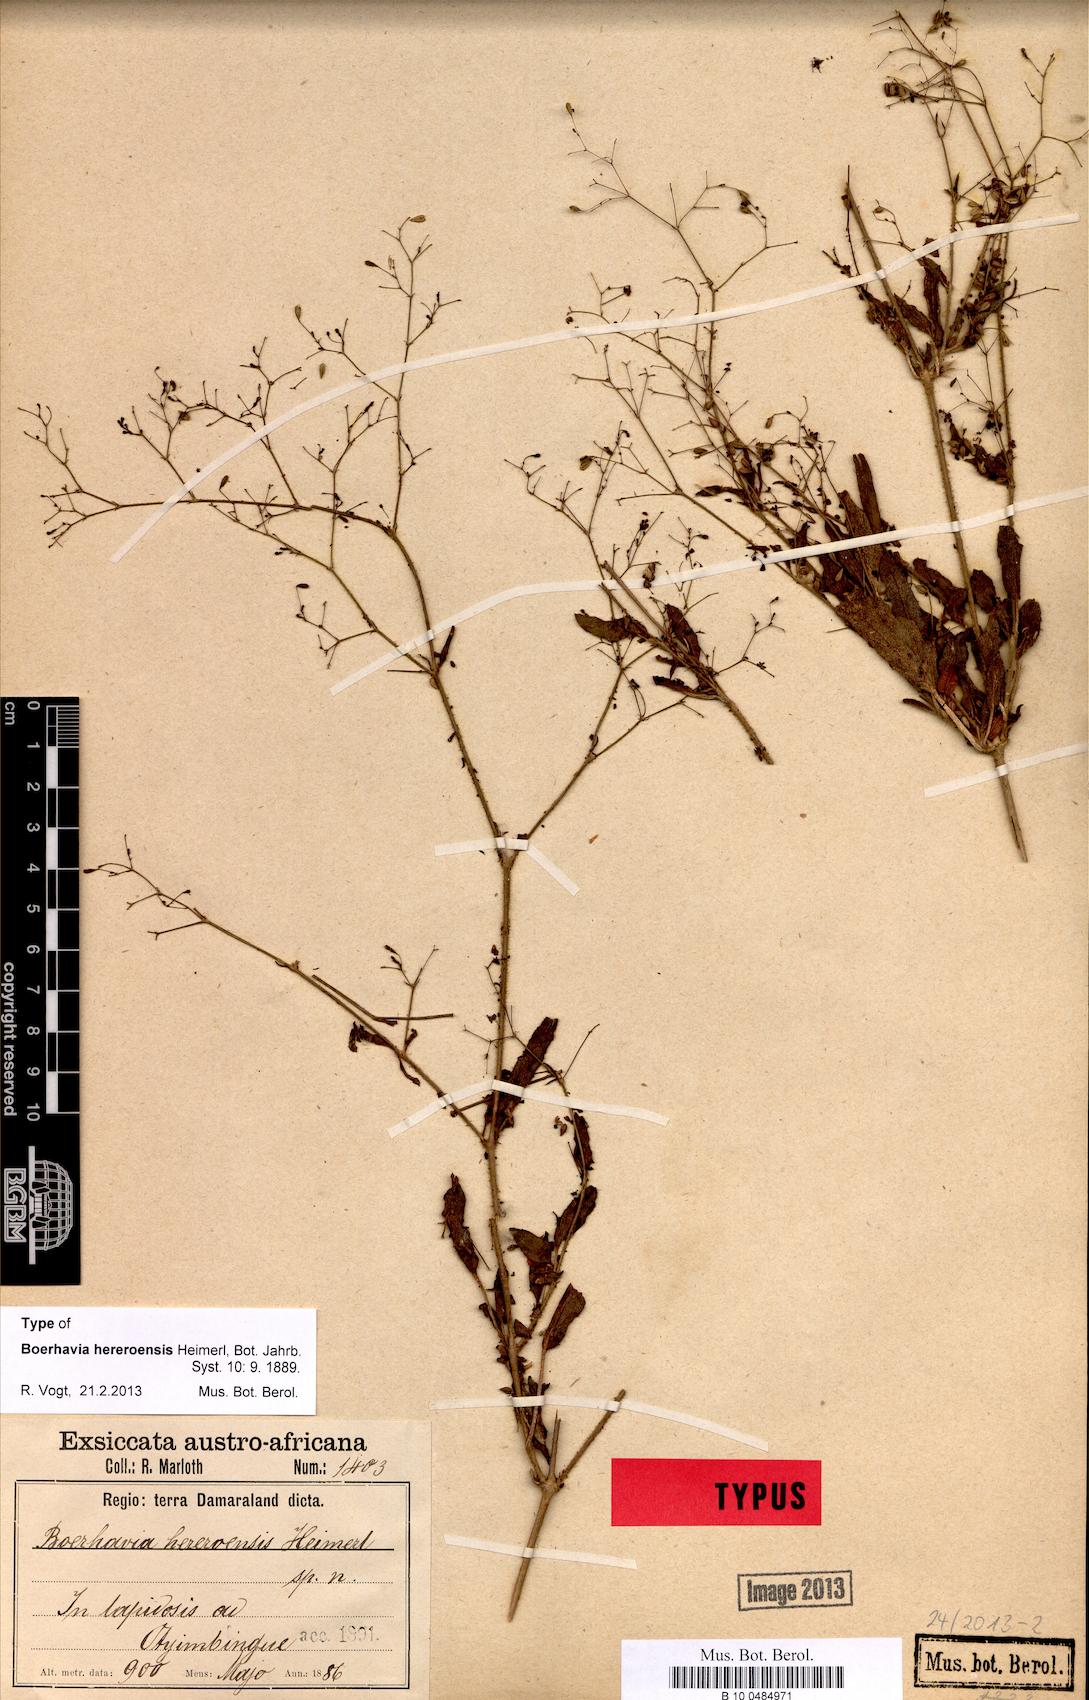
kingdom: Plantae
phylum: Tracheophyta
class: Magnoliopsida
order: Caryophyllales
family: Nyctaginaceae
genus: Boerhavia
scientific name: Boerhavia hereroensis
